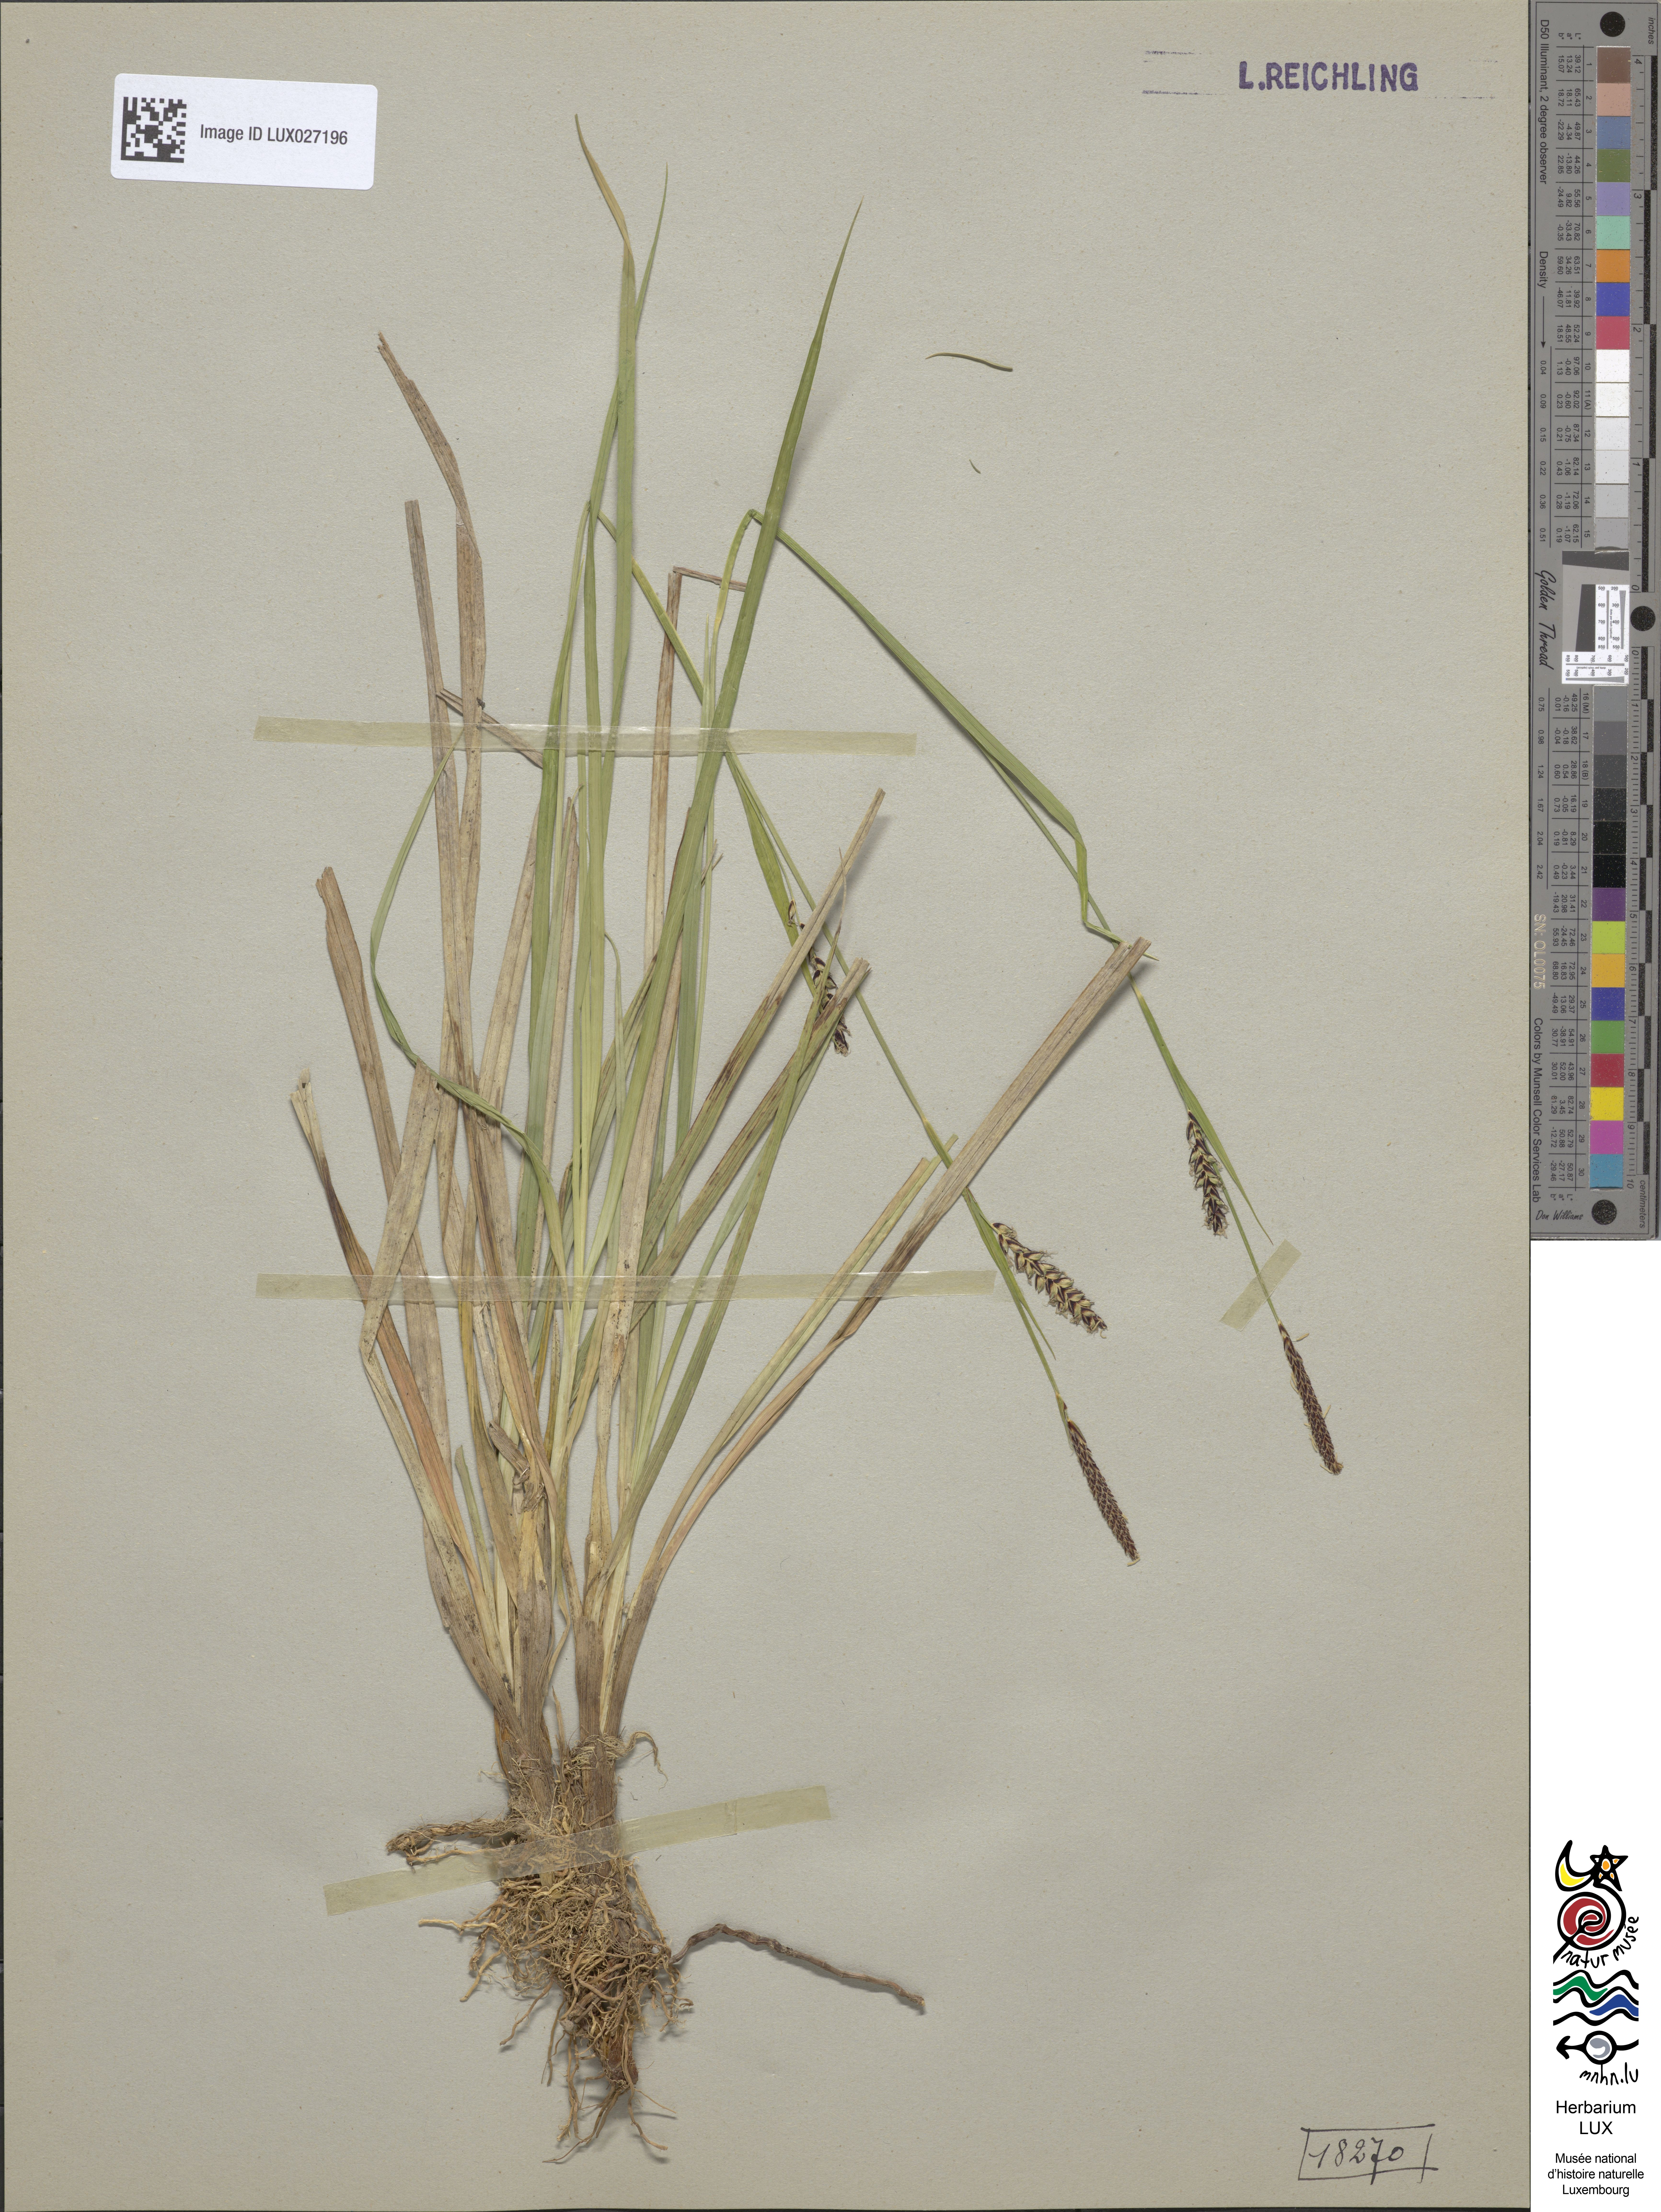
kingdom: Plantae
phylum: Tracheophyta
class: Liliopsida
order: Poales
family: Cyperaceae
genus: Carex
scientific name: Carex panicea
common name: Carnation sedge
